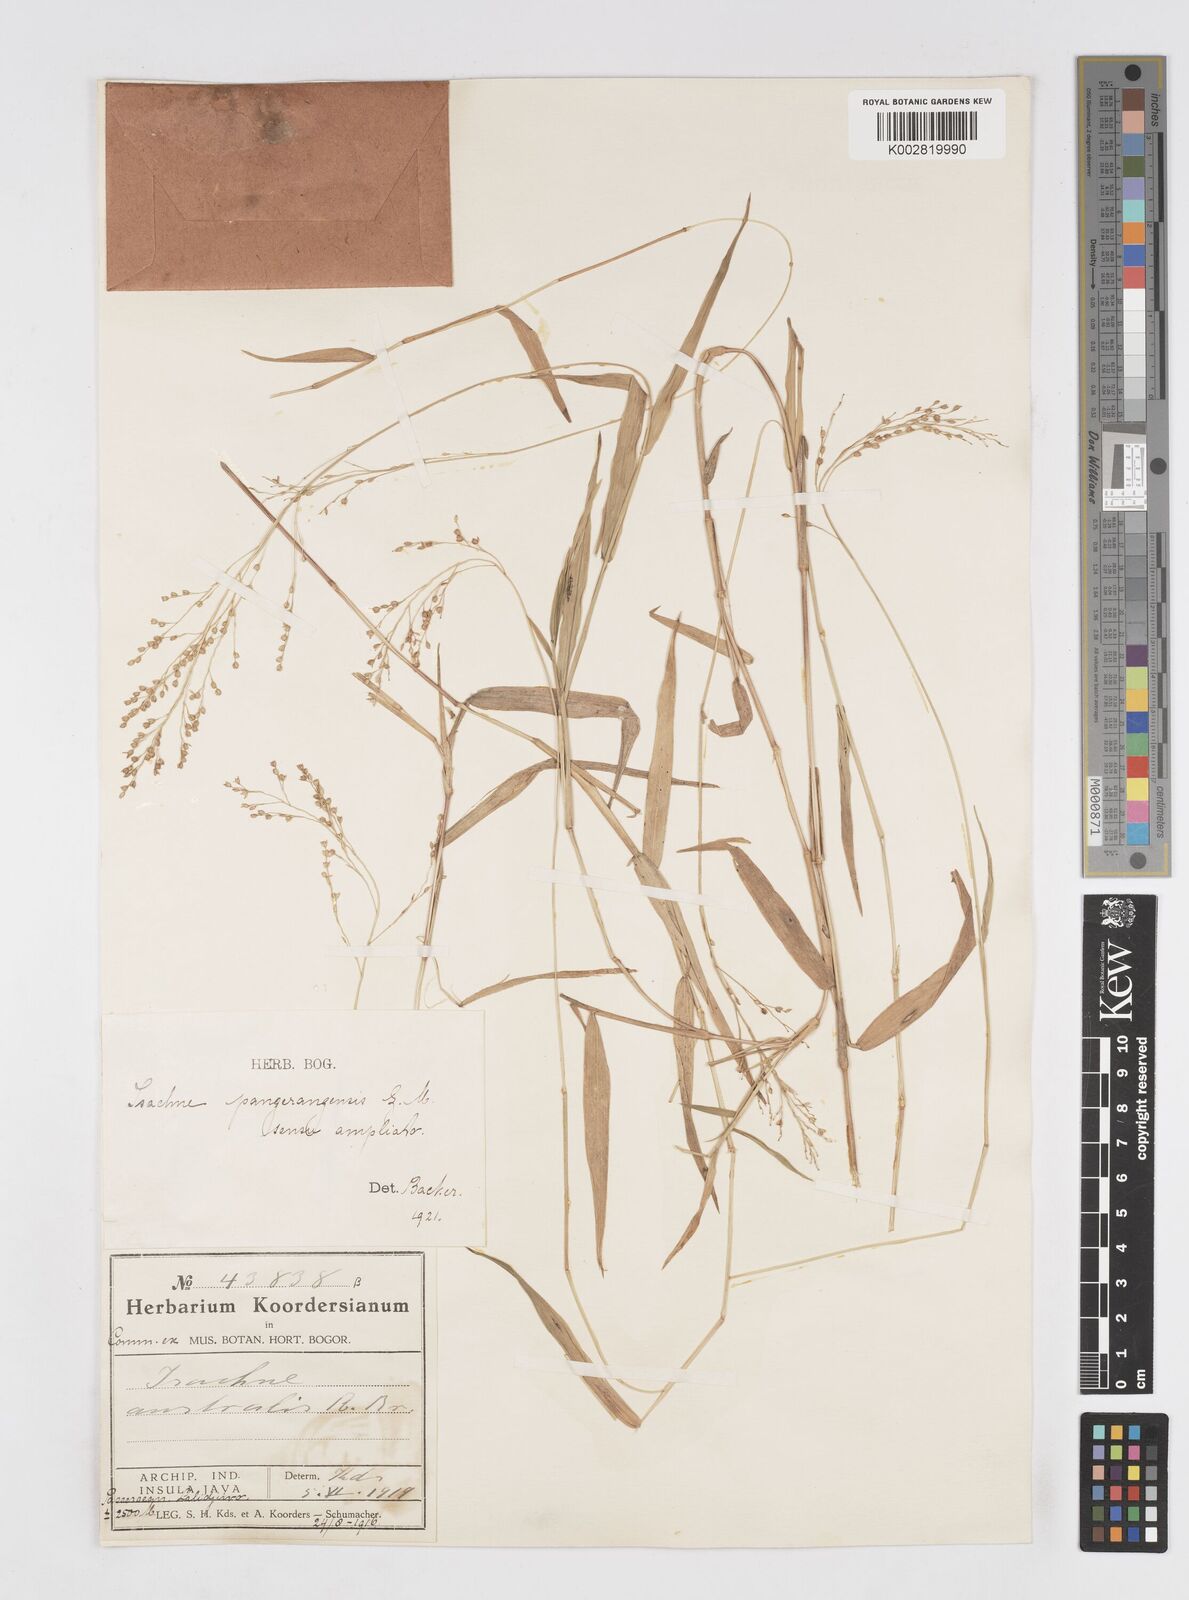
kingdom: Plantae
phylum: Tracheophyta
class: Liliopsida
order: Poales
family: Poaceae
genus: Isachne
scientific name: Isachne globosa
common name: Swamp millet
